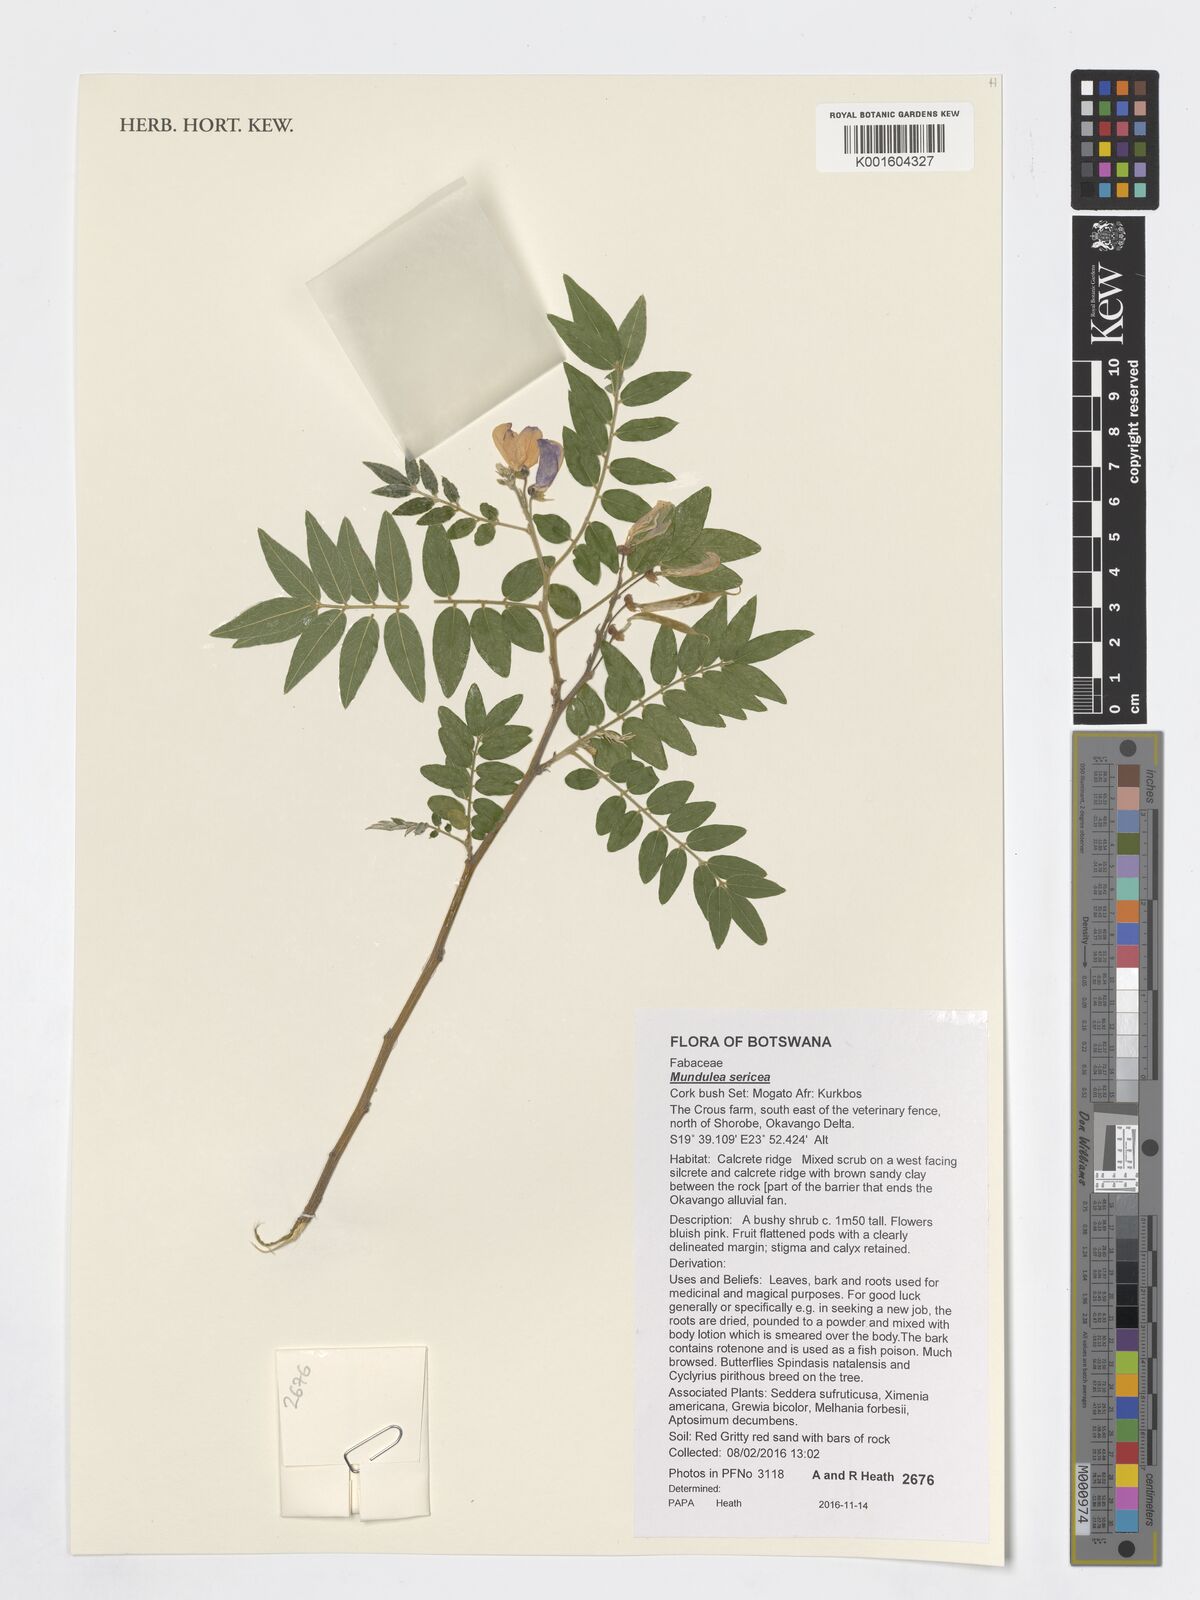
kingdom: Plantae
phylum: Tracheophyta
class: Magnoliopsida
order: Fabales
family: Fabaceae
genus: Mundulea
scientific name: Mundulea sericea
